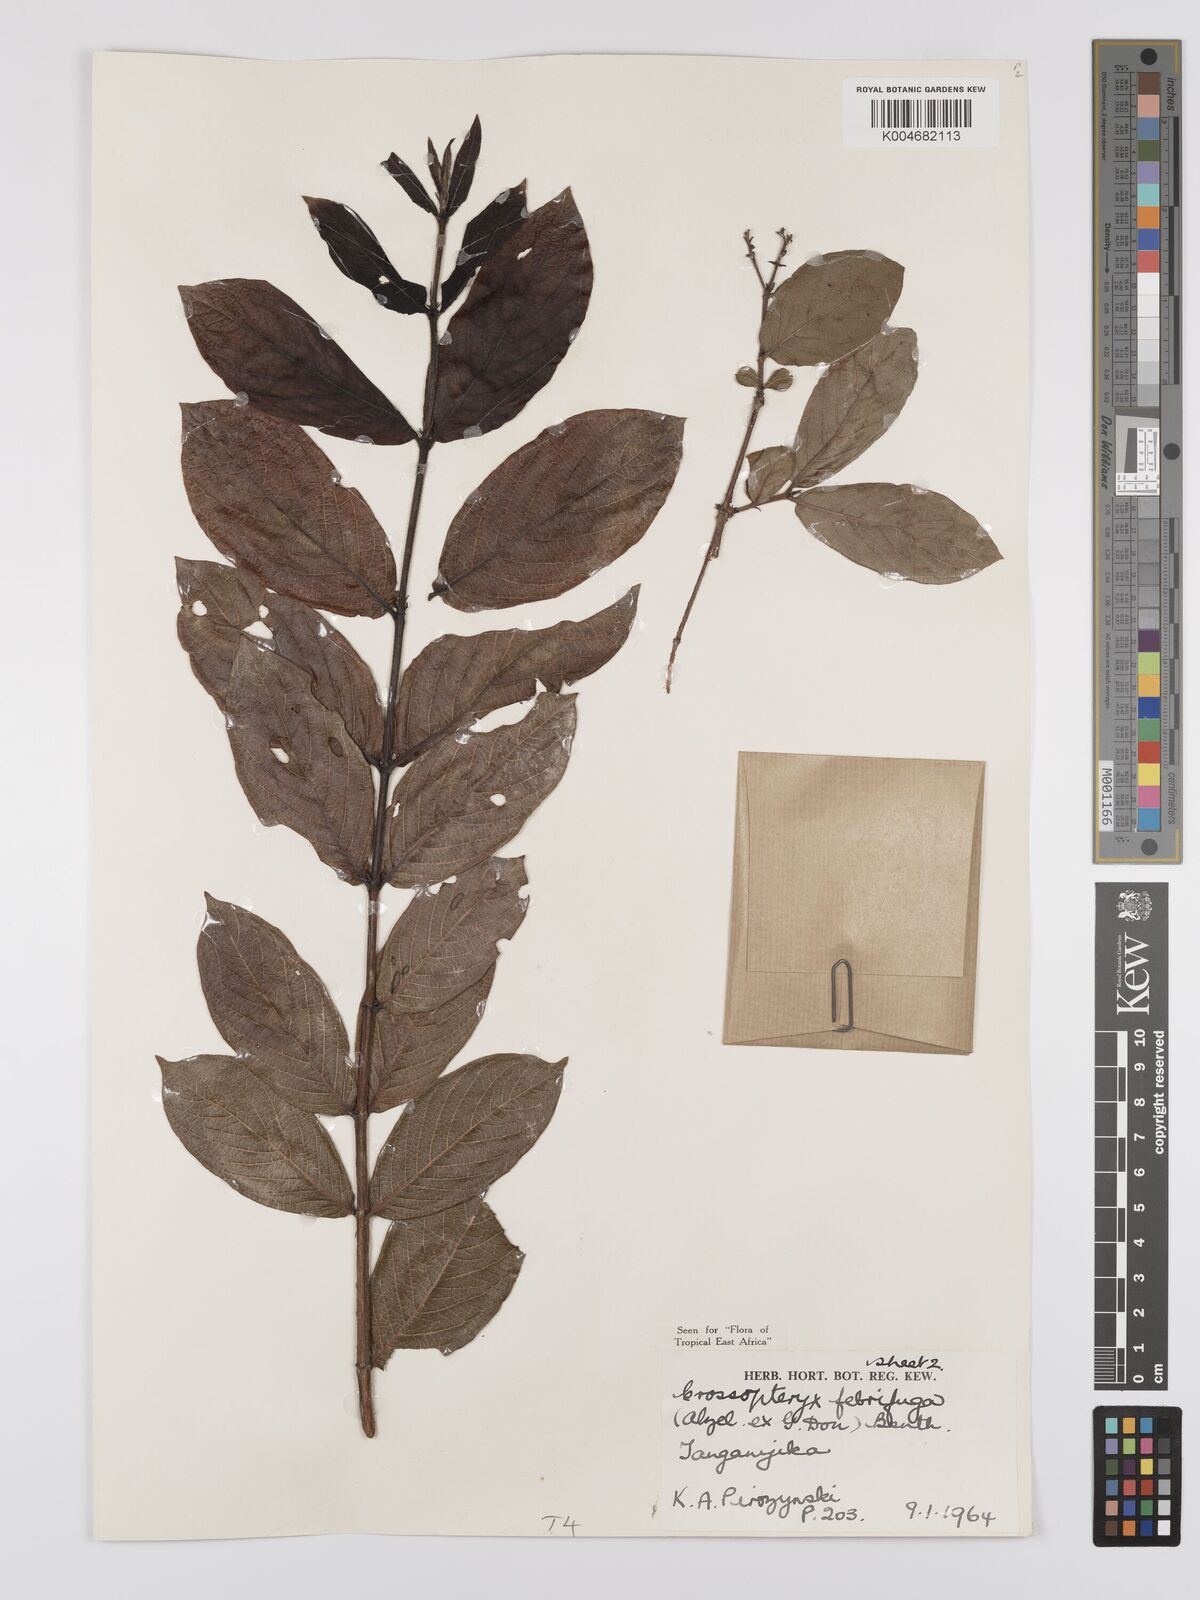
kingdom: Plantae
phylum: Tracheophyta
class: Magnoliopsida
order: Gentianales
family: Rubiaceae
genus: Crossopteryx
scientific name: Crossopteryx febrifuga
